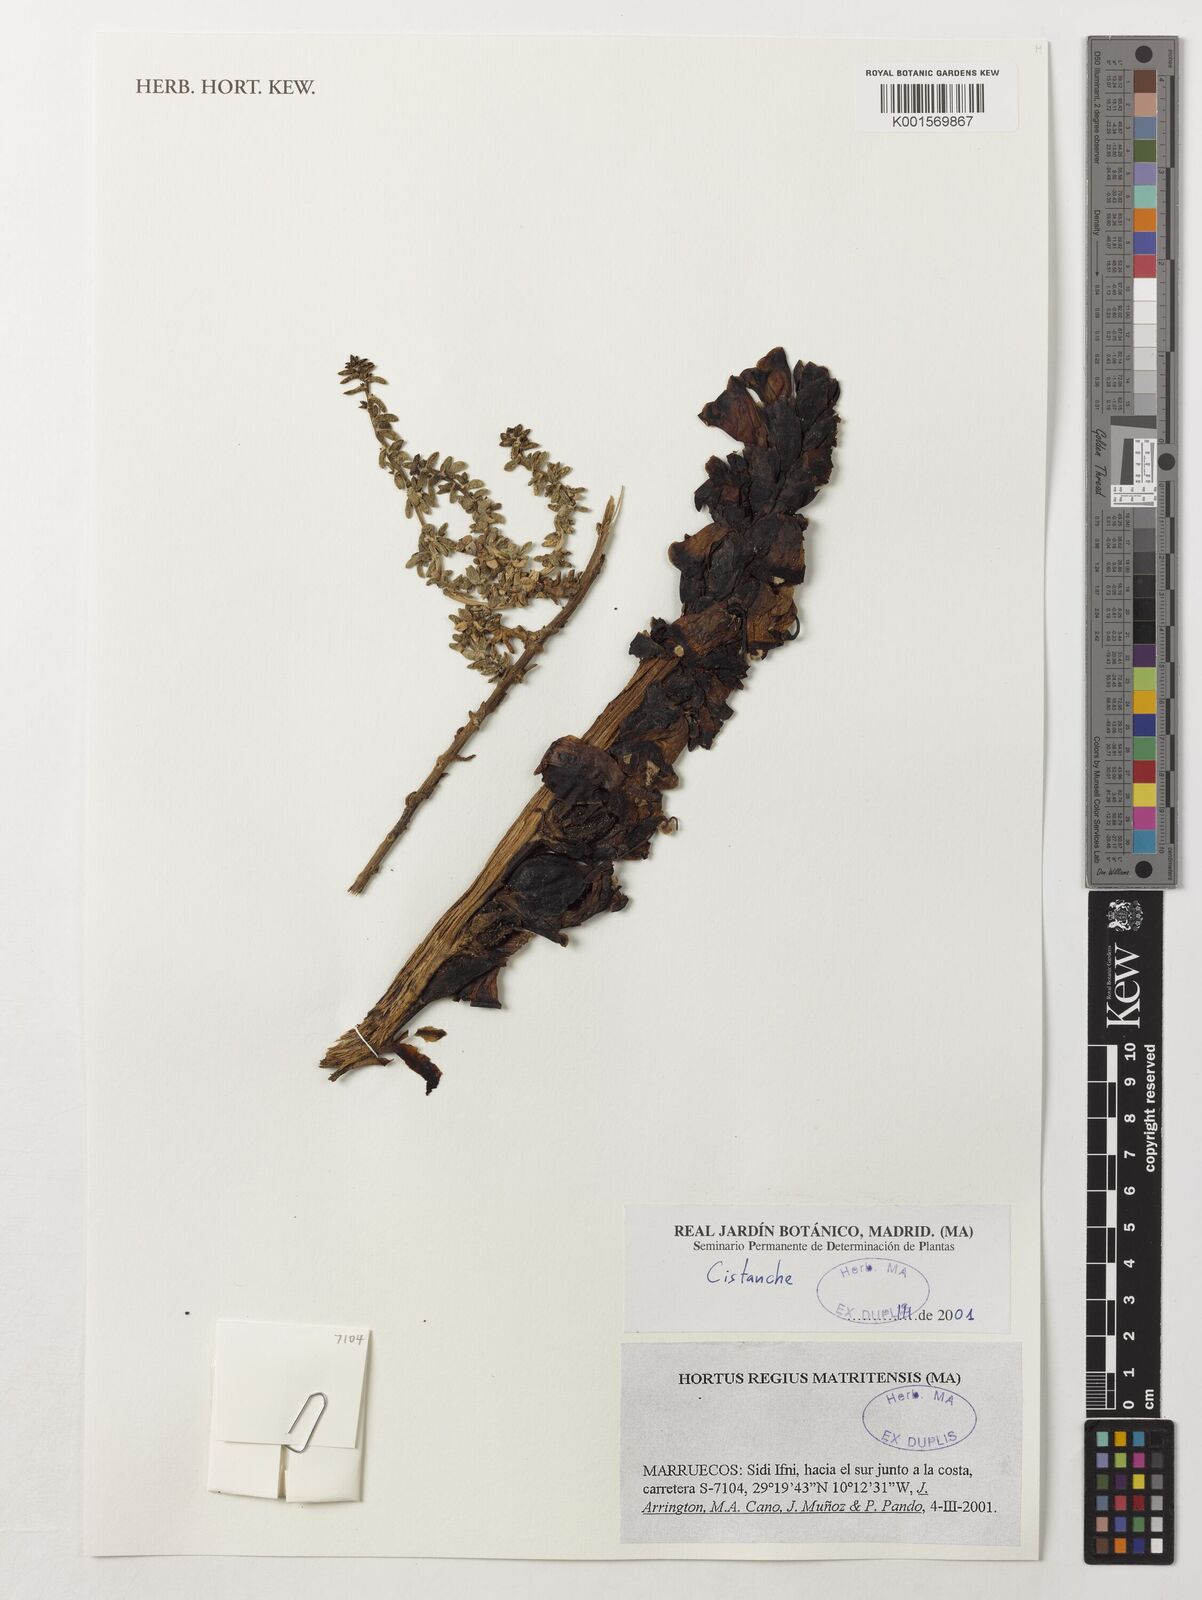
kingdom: Plantae
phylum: Tracheophyta
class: Magnoliopsida
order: Lamiales
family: Orobanchaceae
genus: Cistanche
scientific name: Cistanche
